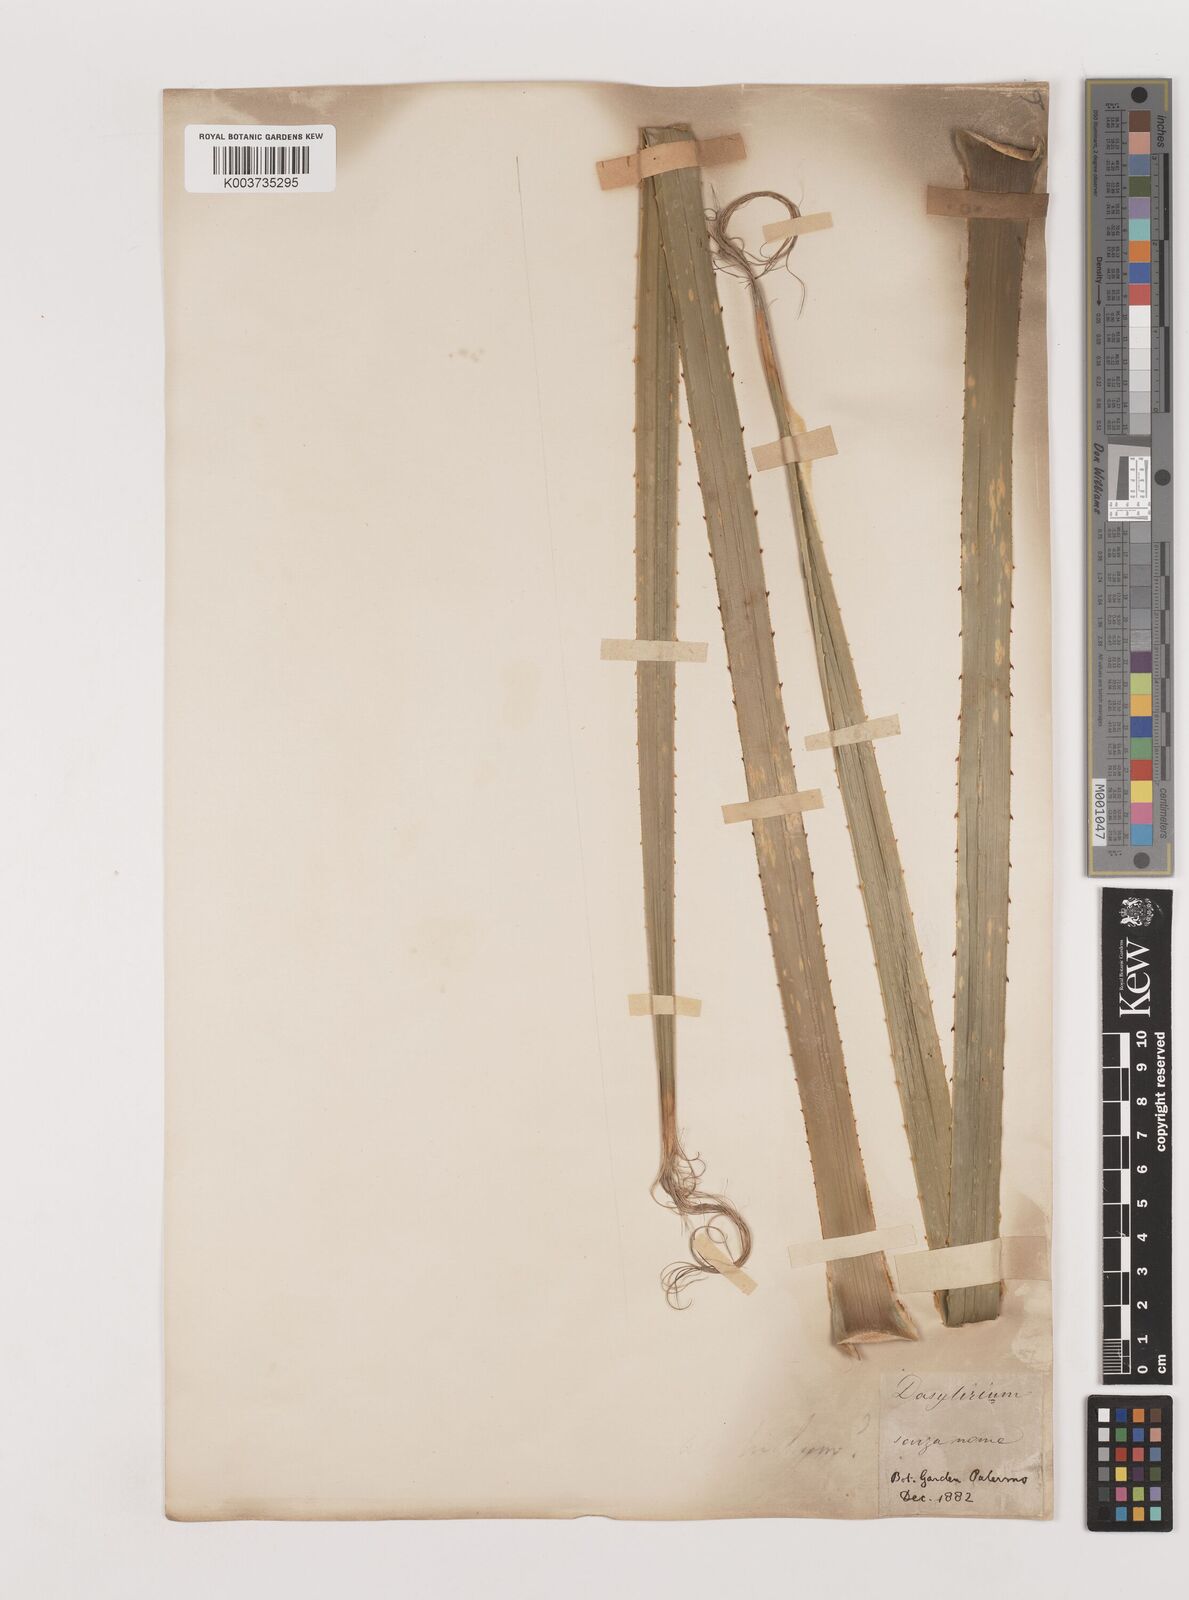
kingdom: Plantae
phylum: Tracheophyta
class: Liliopsida
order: Asparagales
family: Asparagaceae
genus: Dasylirion
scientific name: Dasylirion
